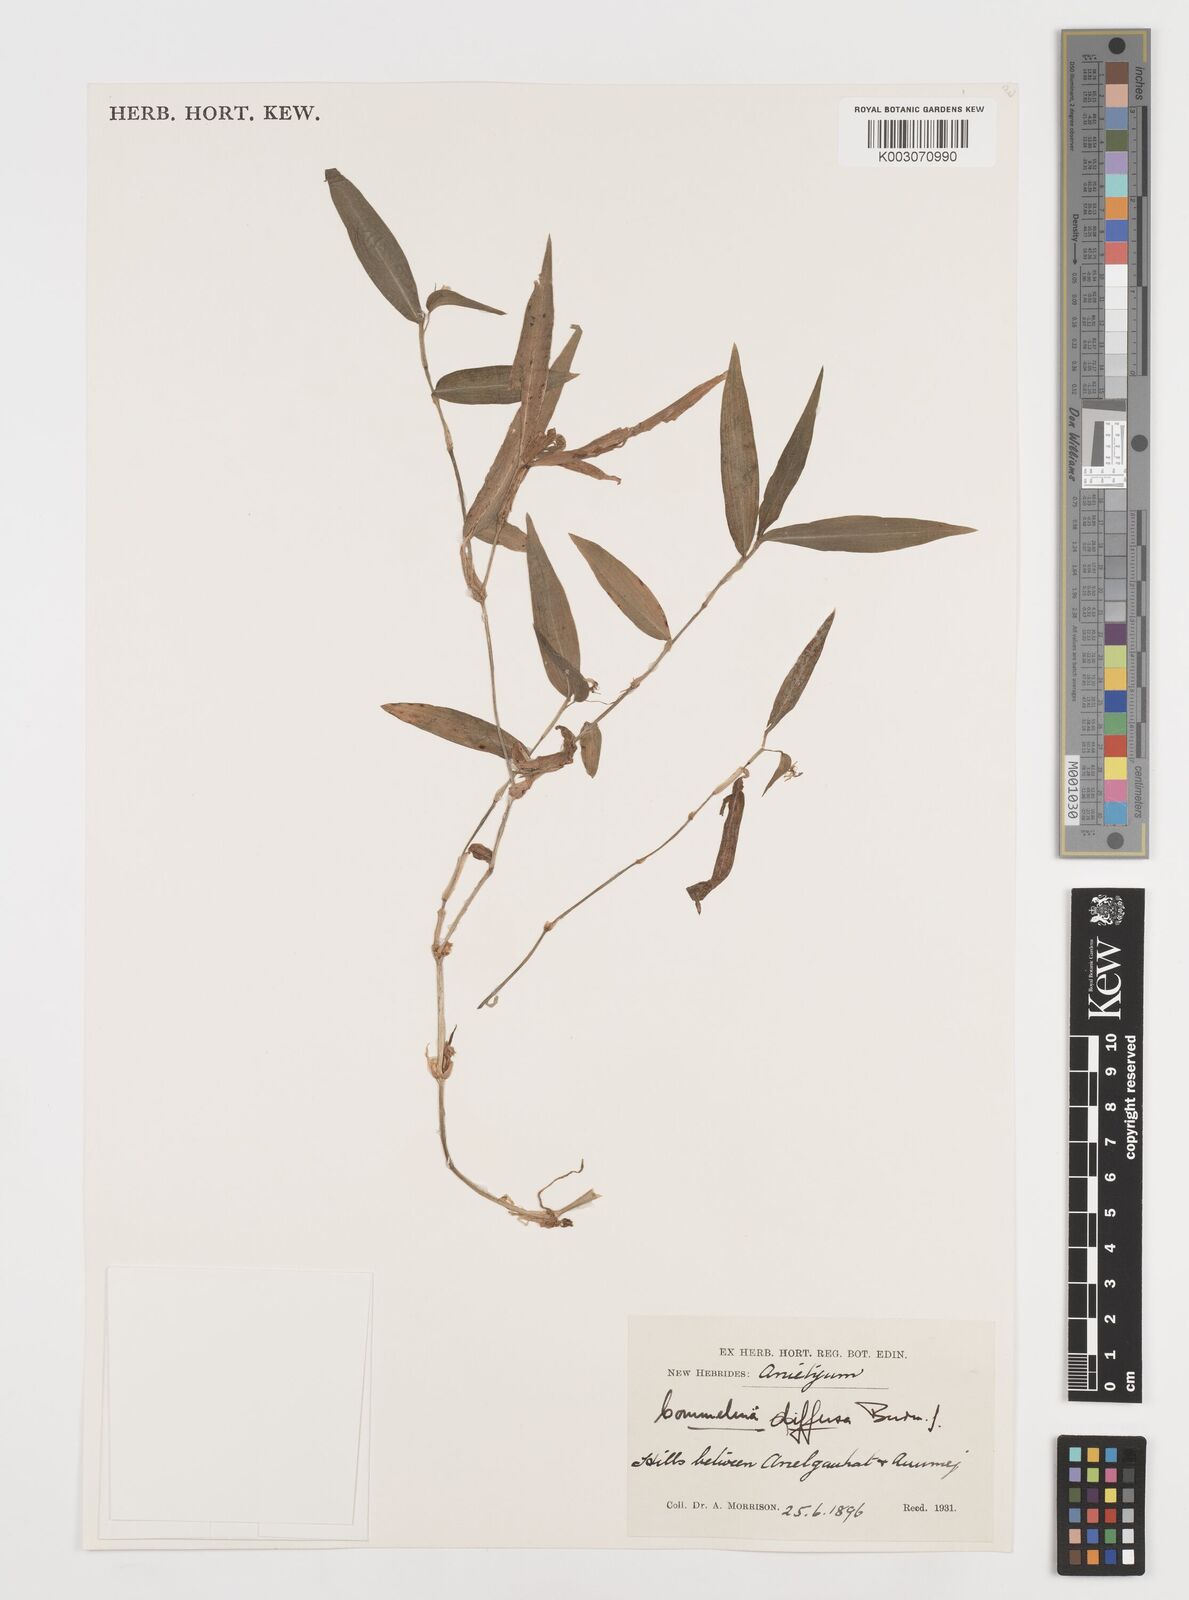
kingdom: Plantae
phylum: Tracheophyta
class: Liliopsida
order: Commelinales
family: Commelinaceae
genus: Commelina
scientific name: Commelina diffusa
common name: Climbing dayflower
